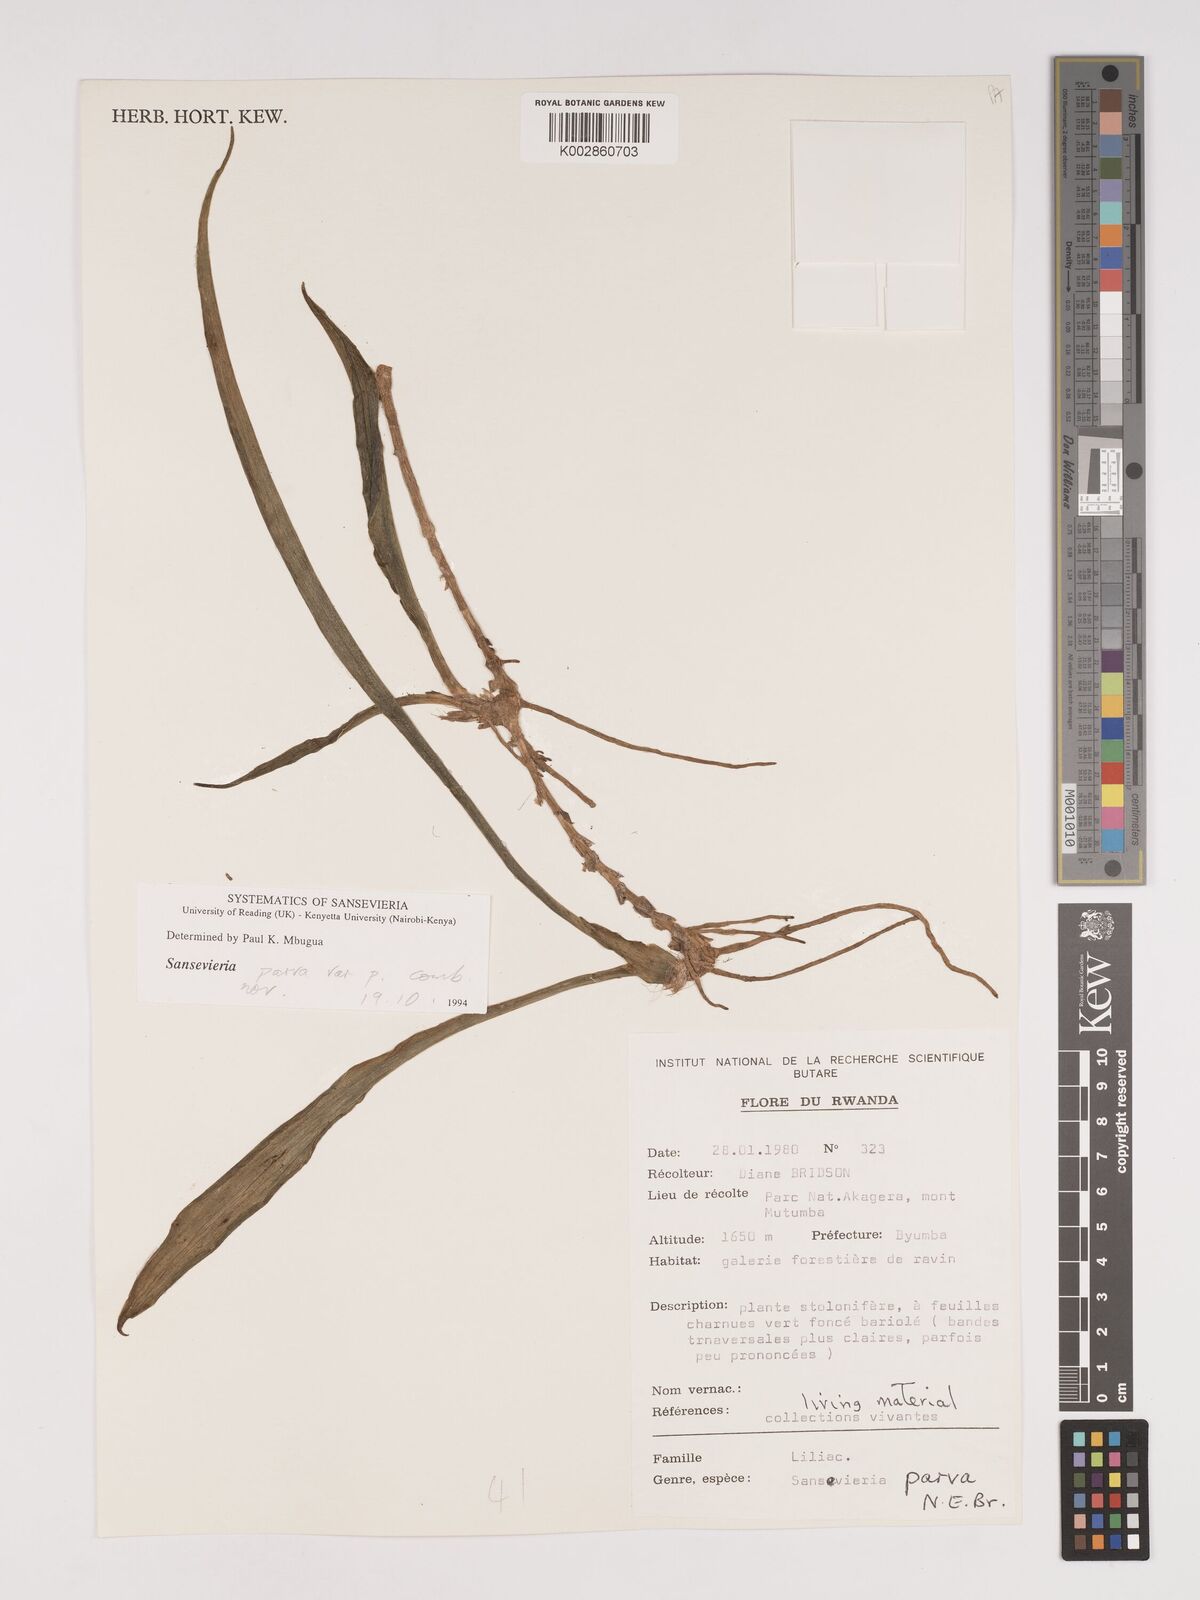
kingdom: Plantae
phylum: Tracheophyta
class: Liliopsida
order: Asparagales
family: Asparagaceae
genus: Dracaena
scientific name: Dracaena parva
